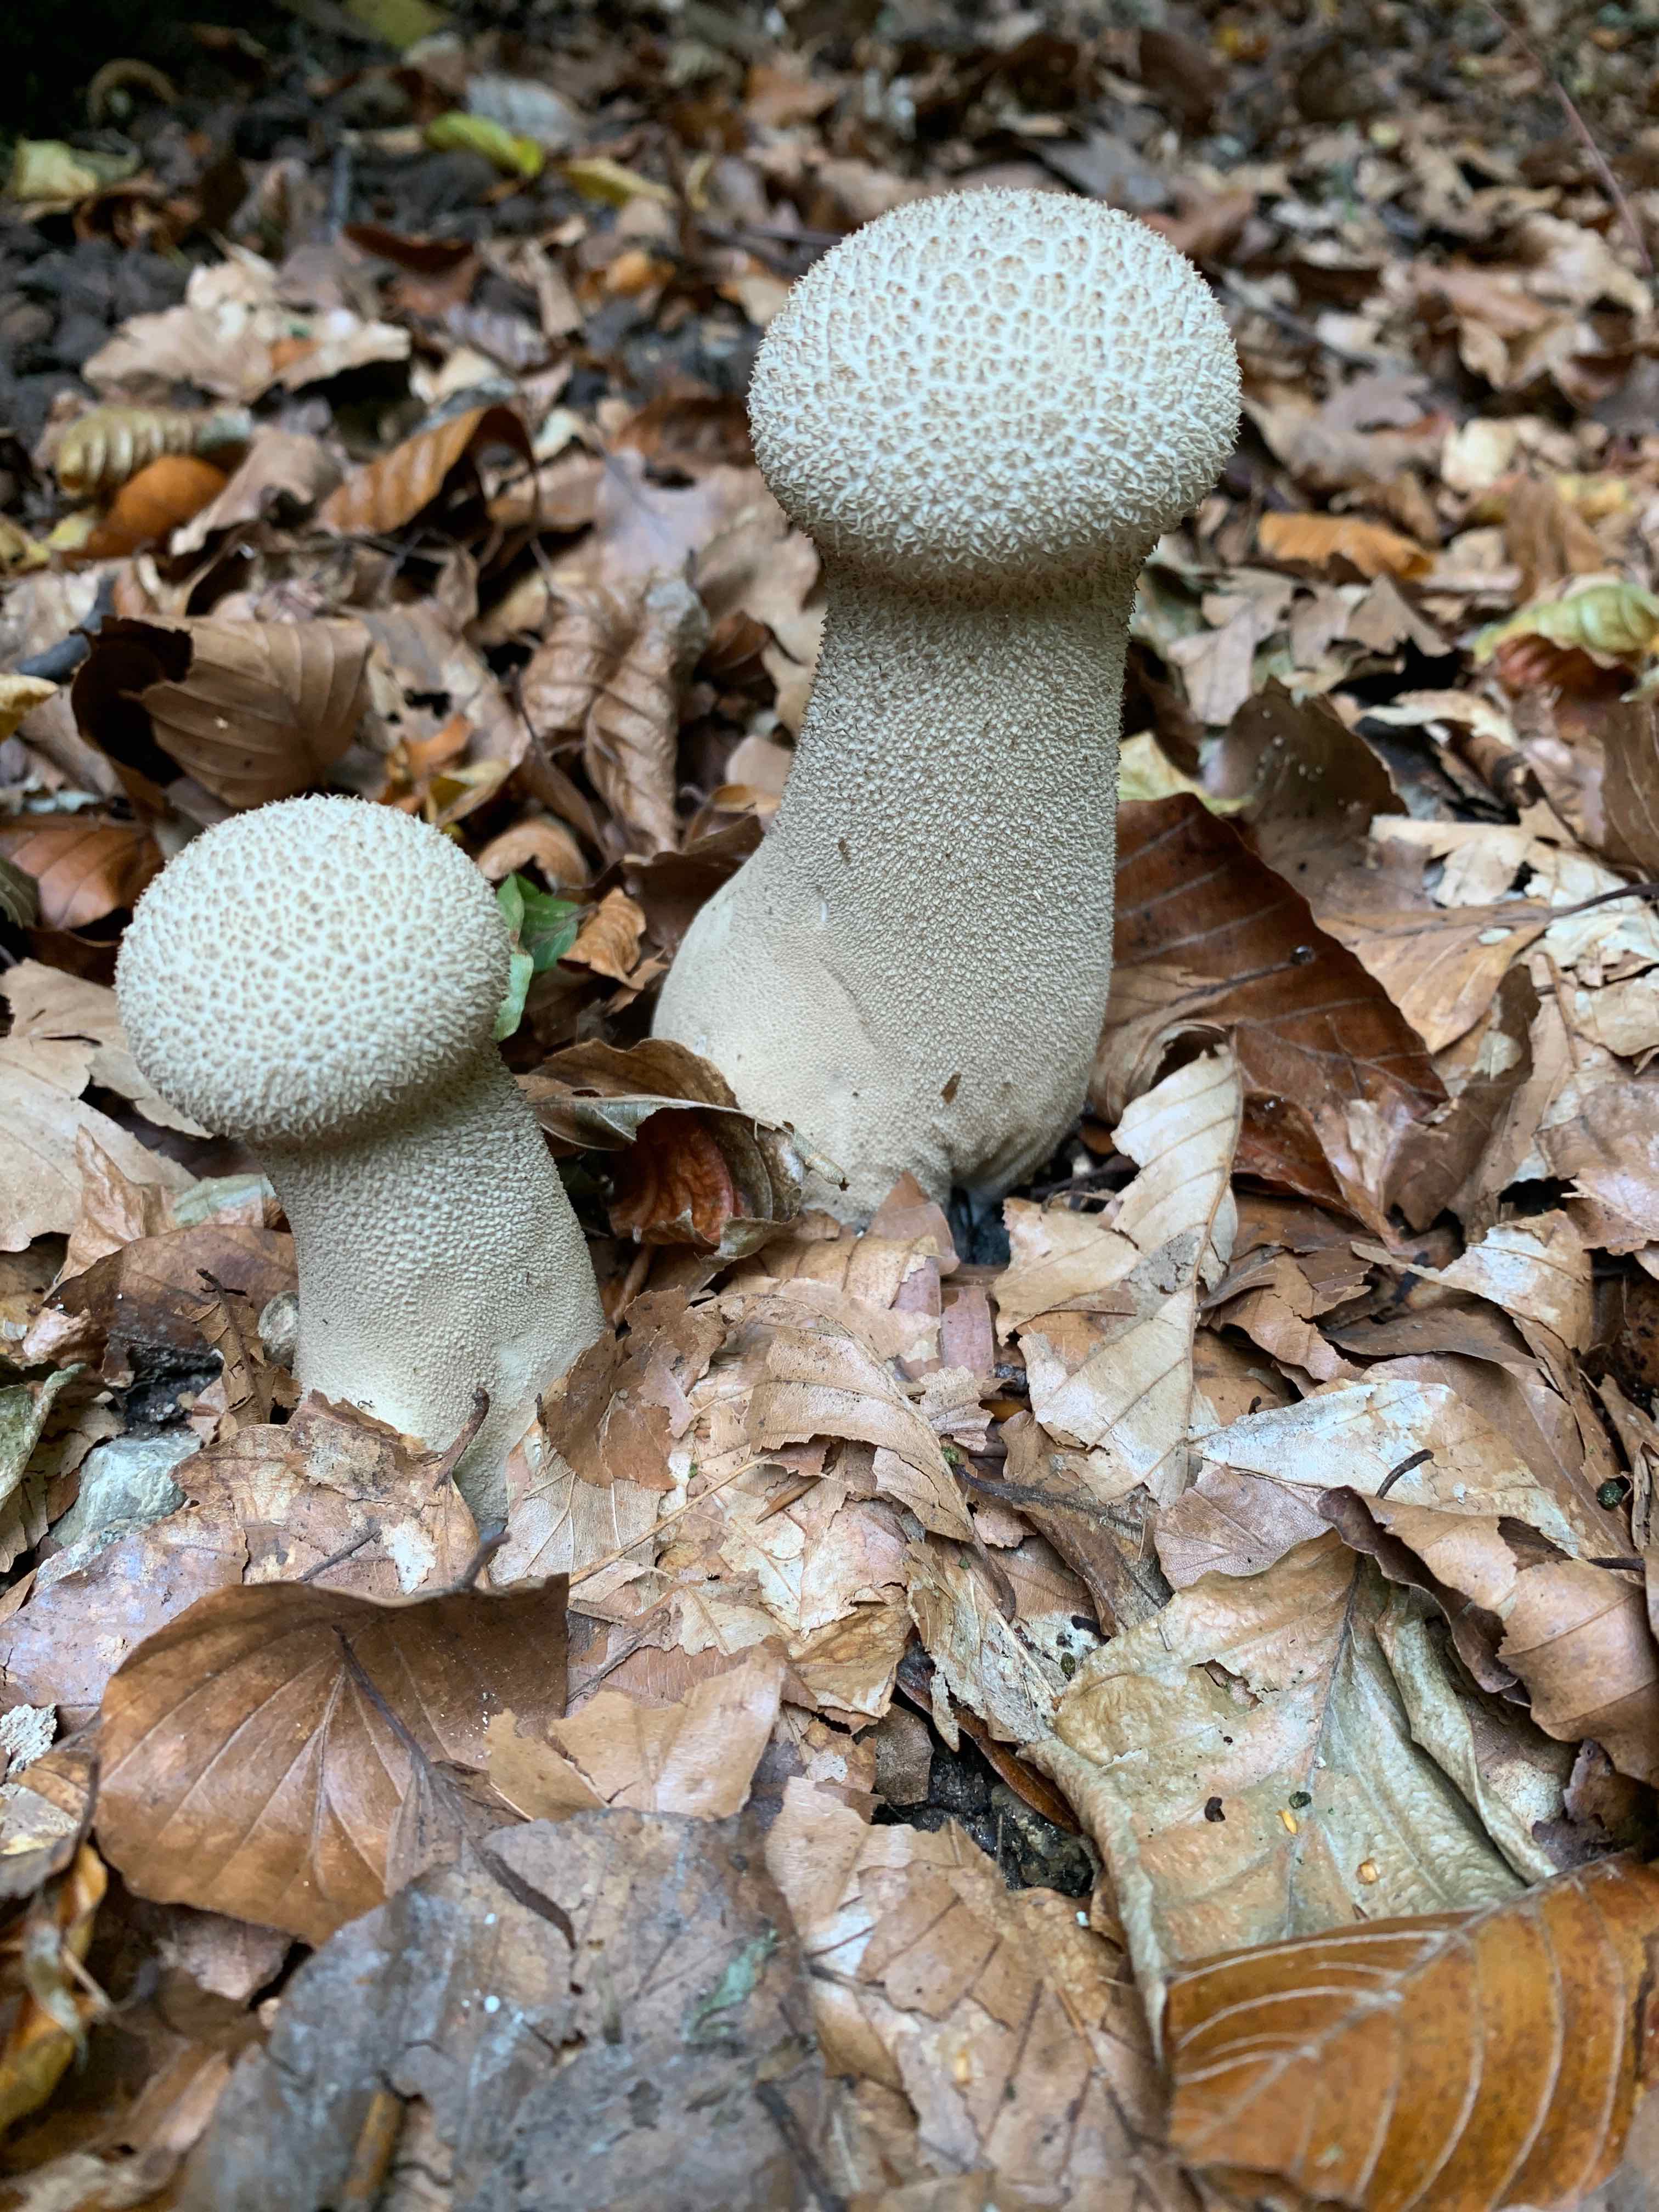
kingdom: Fungi
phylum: Basidiomycota
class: Agaricomycetes
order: Agaricales
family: Lycoperdaceae
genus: Lycoperdon
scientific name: Lycoperdon excipuliforme
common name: højstokket støvbold
